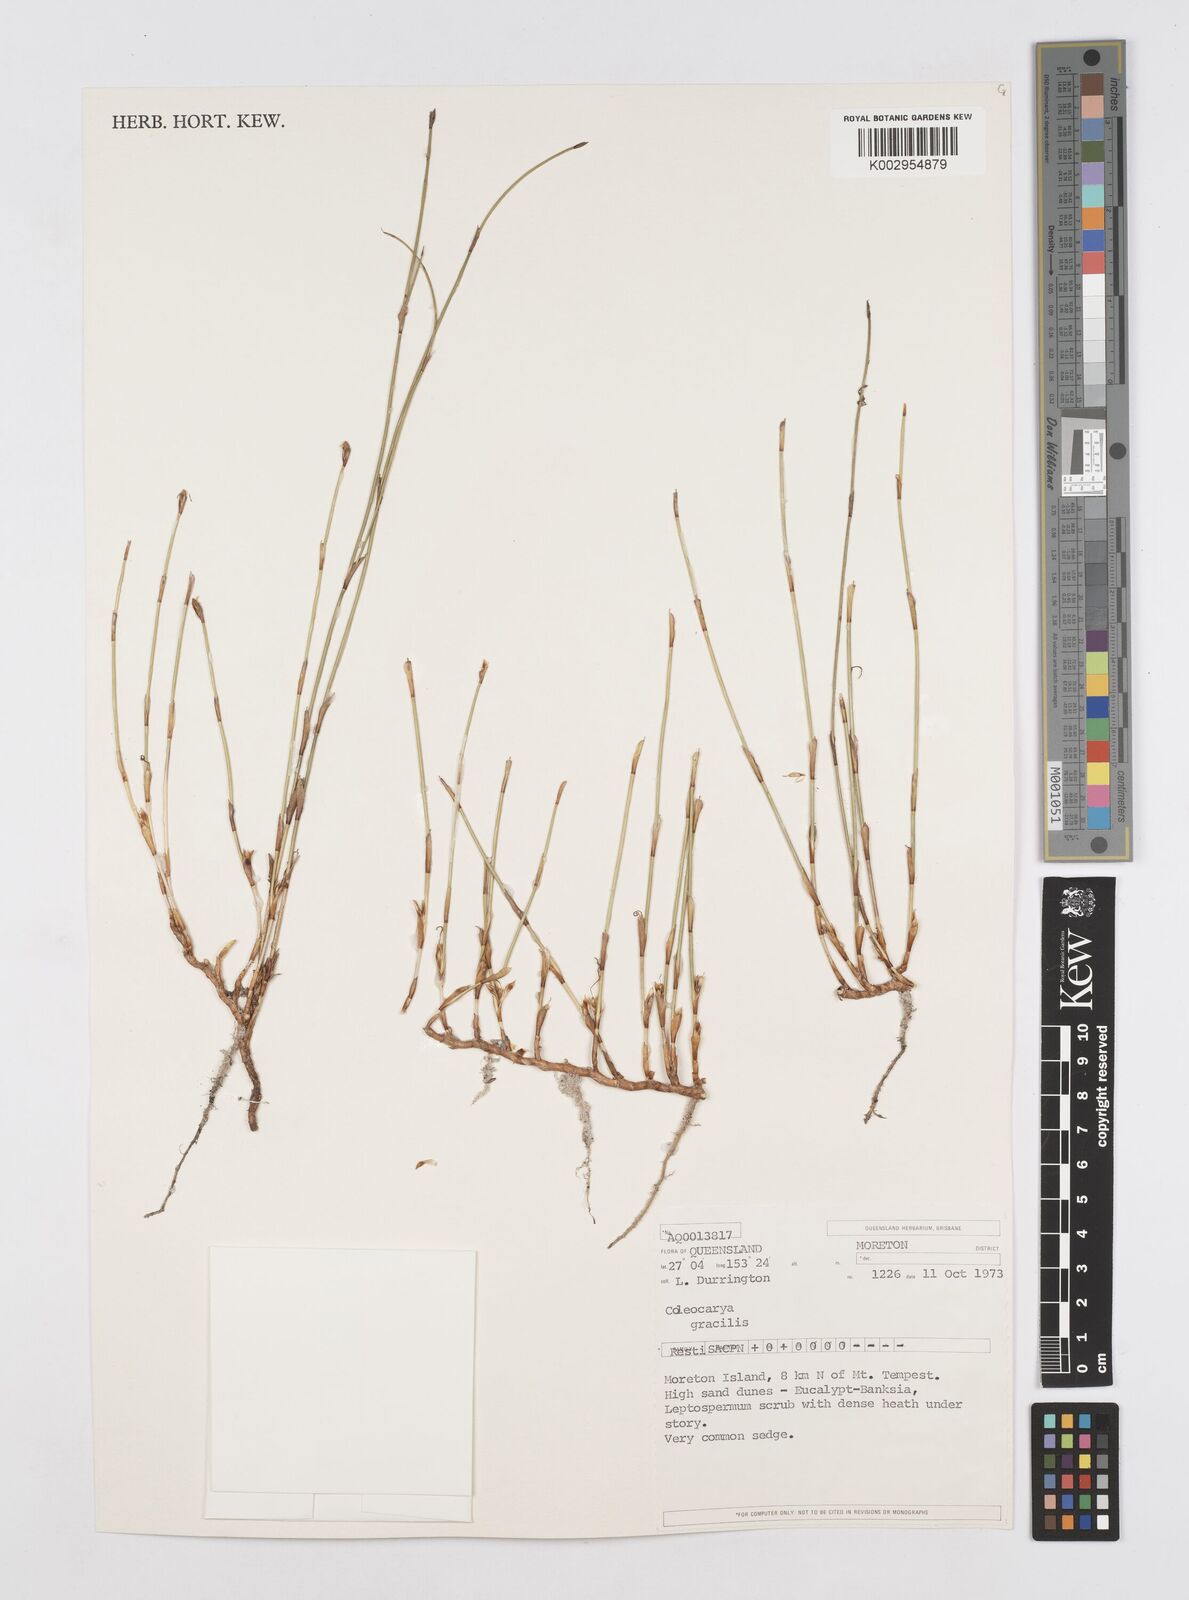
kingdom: Plantae
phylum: Tracheophyta
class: Liliopsida
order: Poales
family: Restionaceae
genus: Coleocarya
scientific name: Coleocarya gracilis
